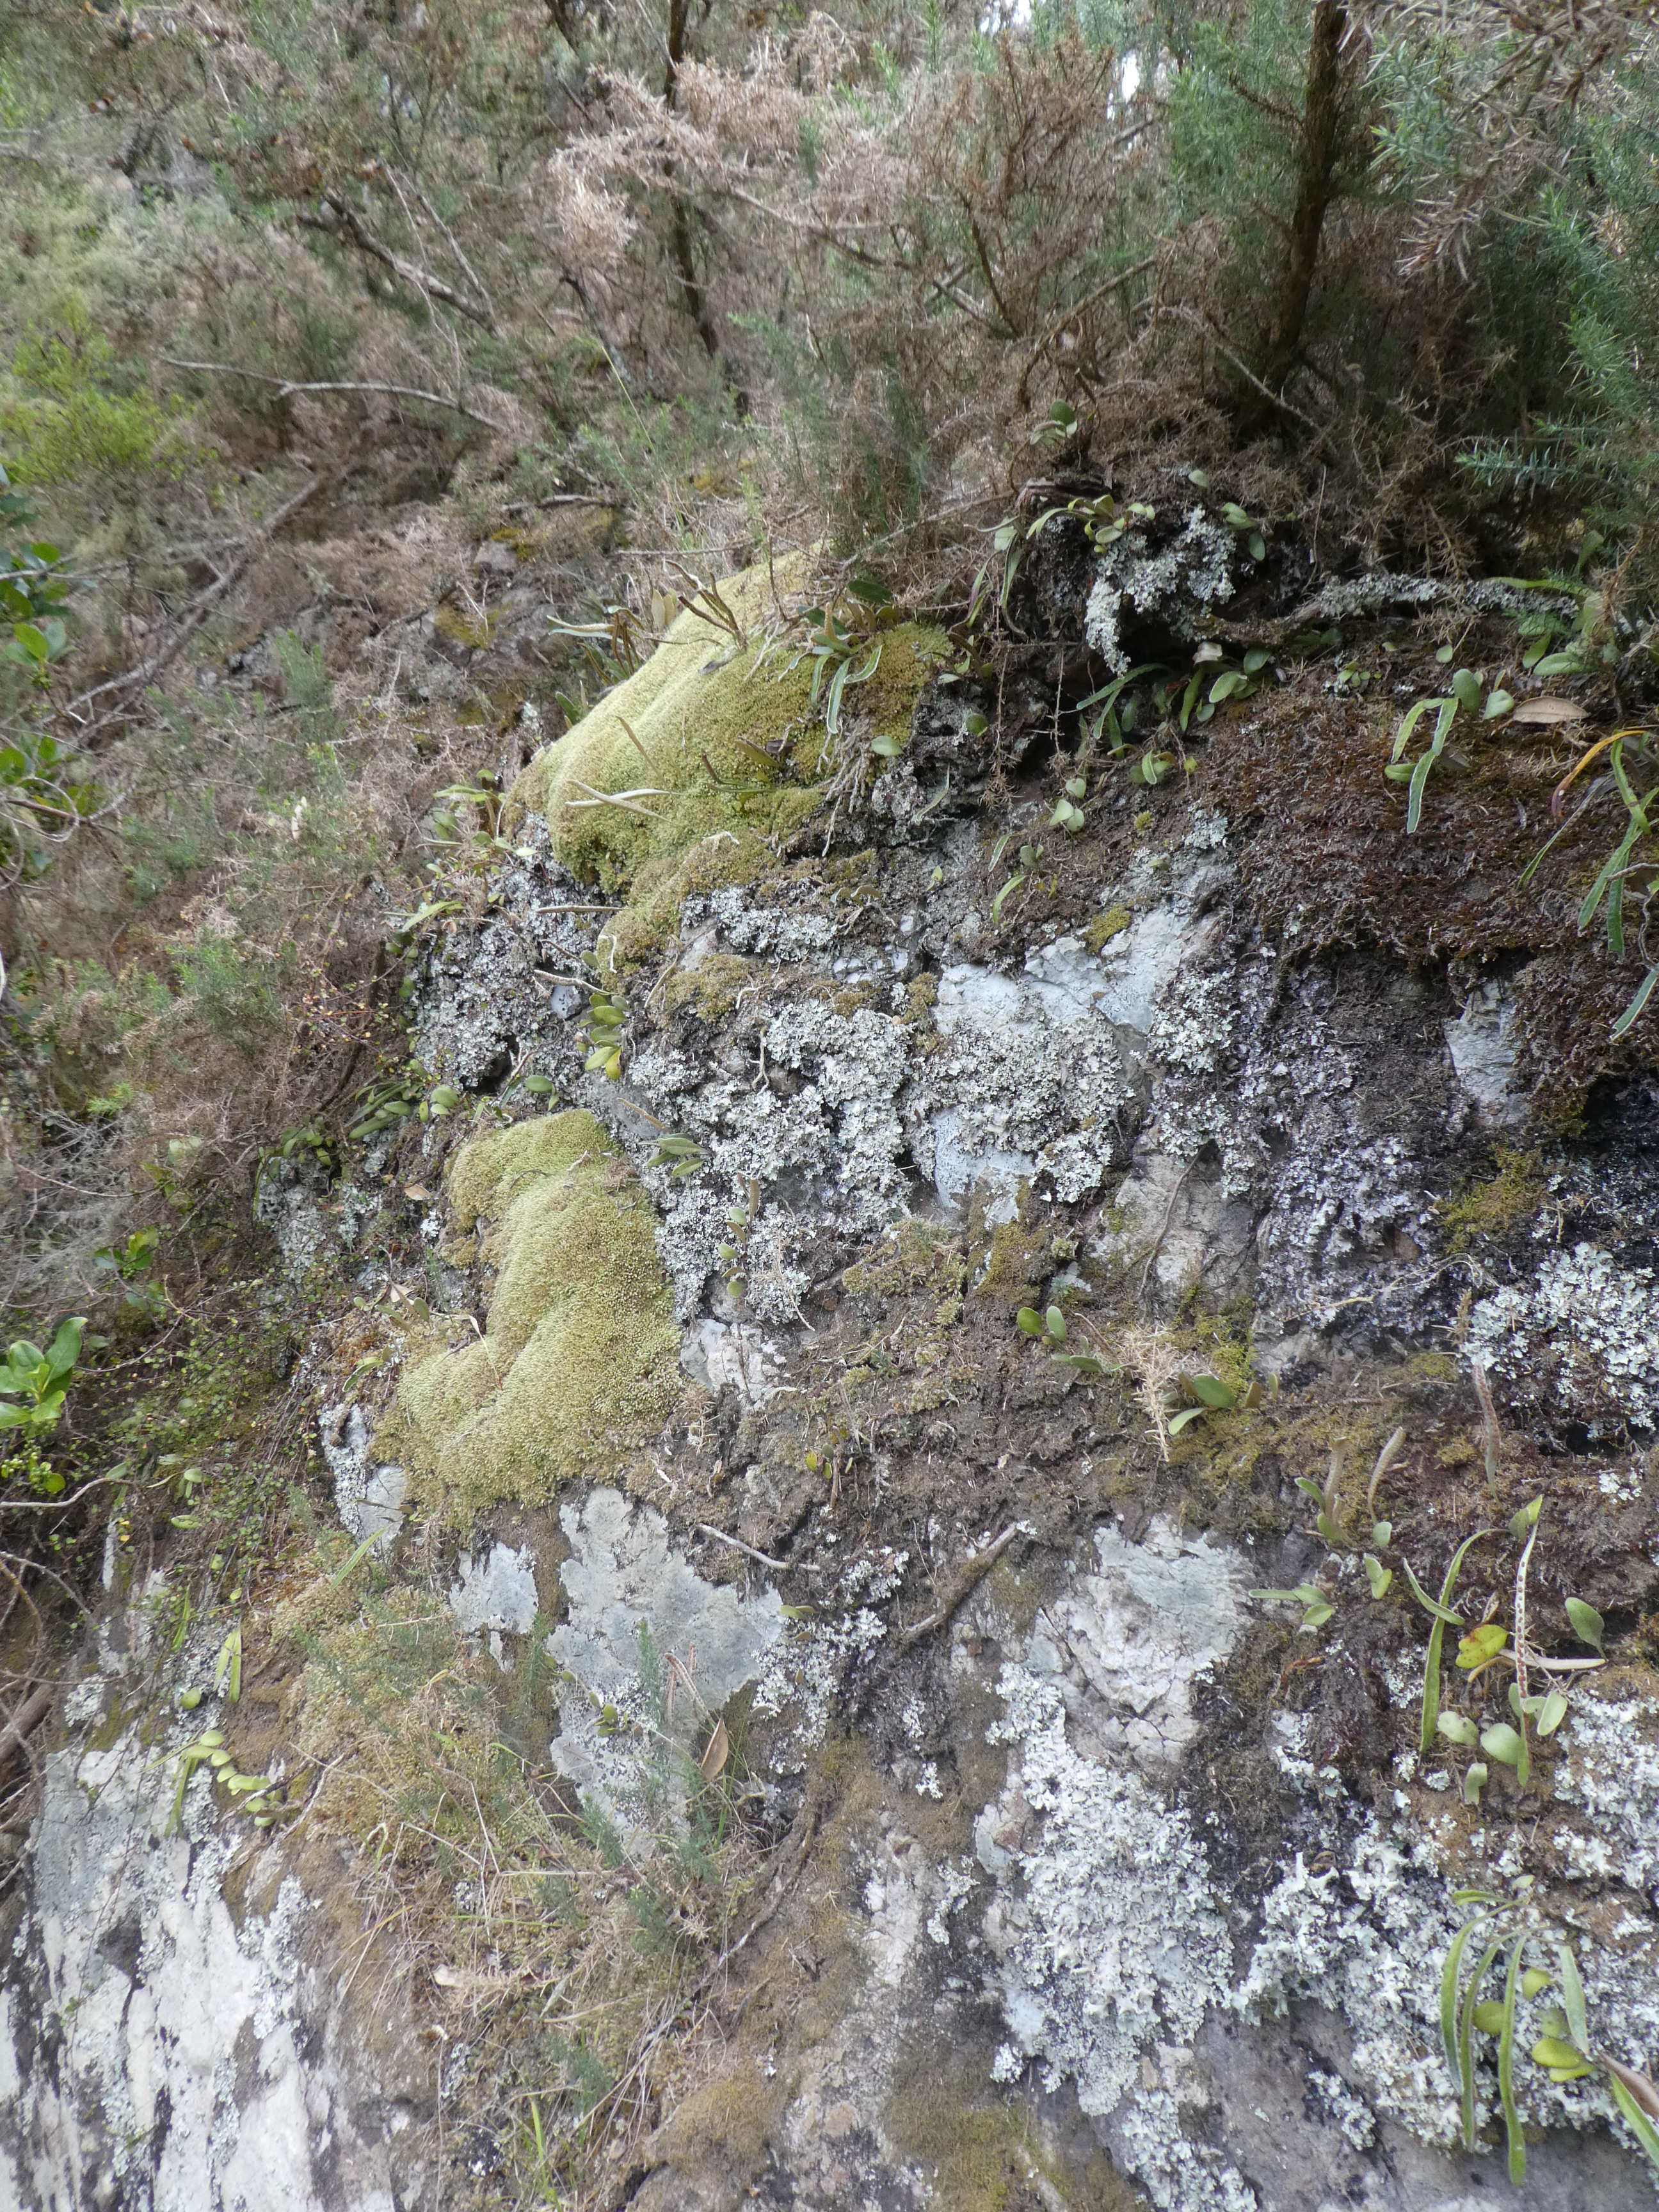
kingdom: Plantae
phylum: Marchantiophyta
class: Jungermanniopsida
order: Jungermanniales
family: Lophocoleaceae
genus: Lophocolea
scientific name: Lophocolea semiteres
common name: Southern crestwort
